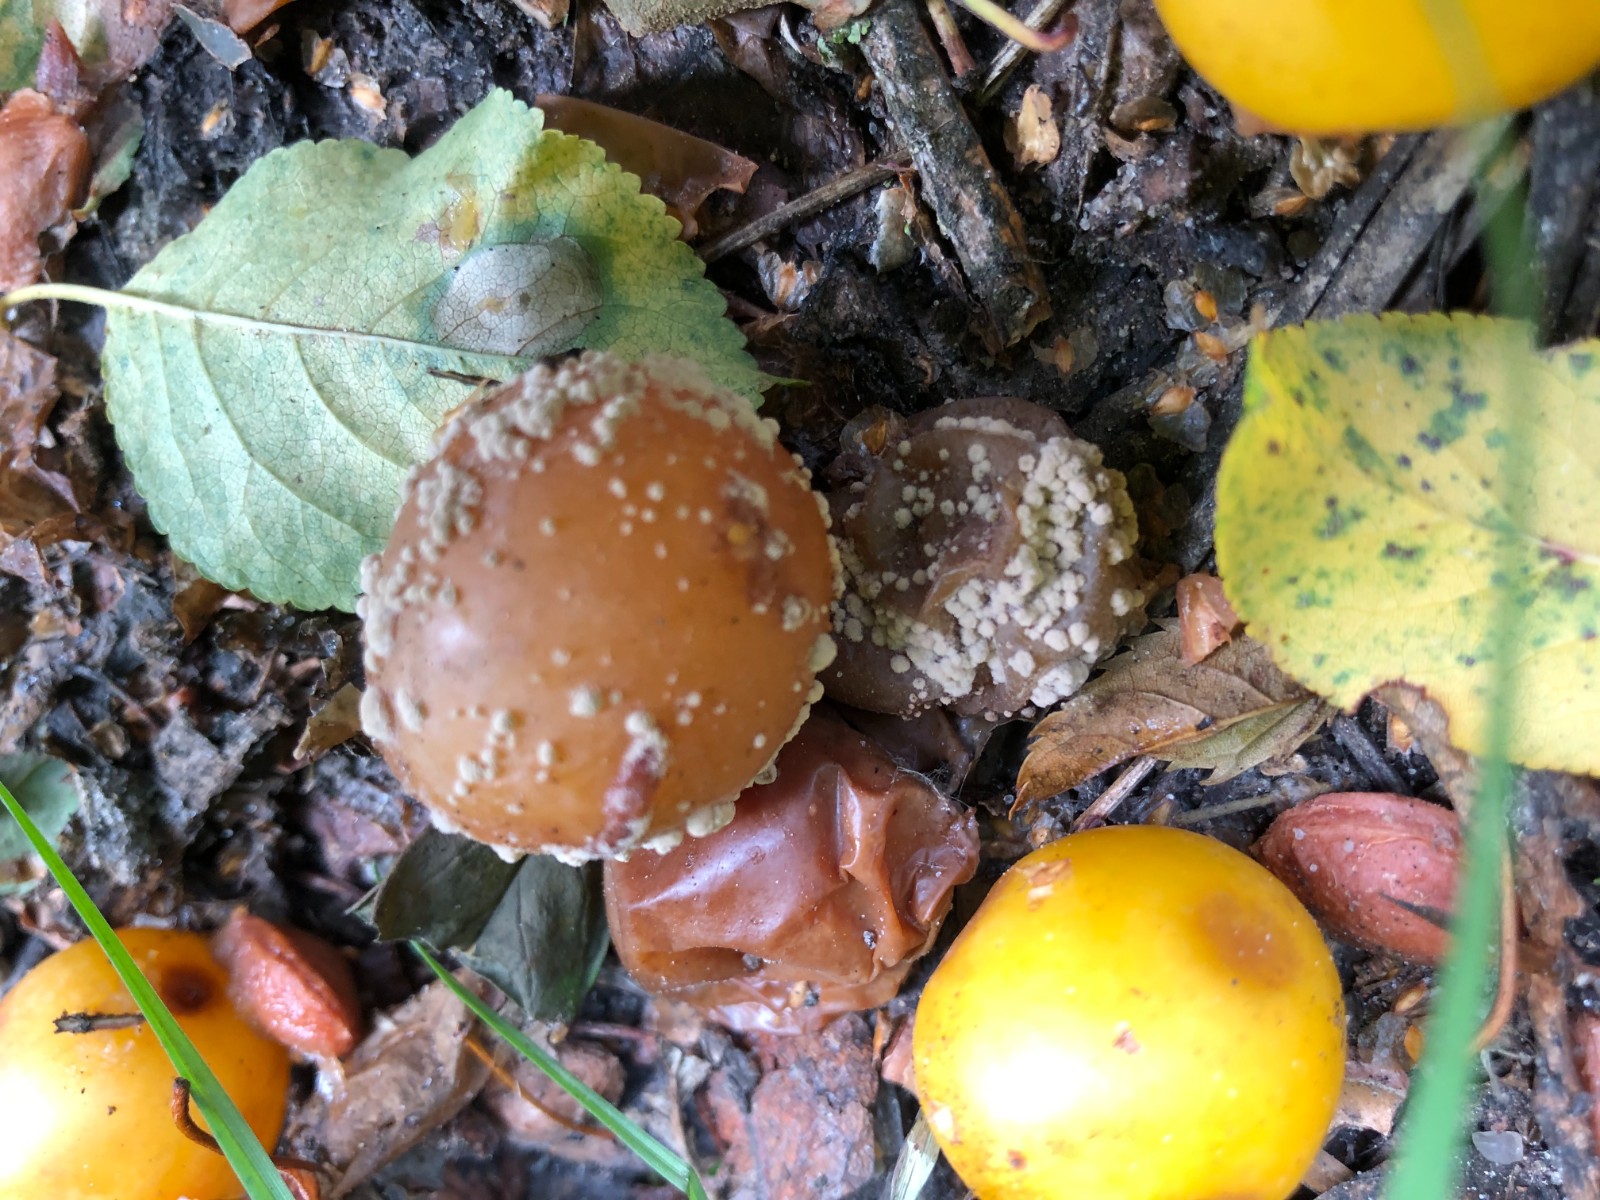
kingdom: Fungi
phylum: Ascomycota
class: Leotiomycetes
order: Helotiales
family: Sclerotiniaceae
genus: Monilinia
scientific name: Monilinia laxa
